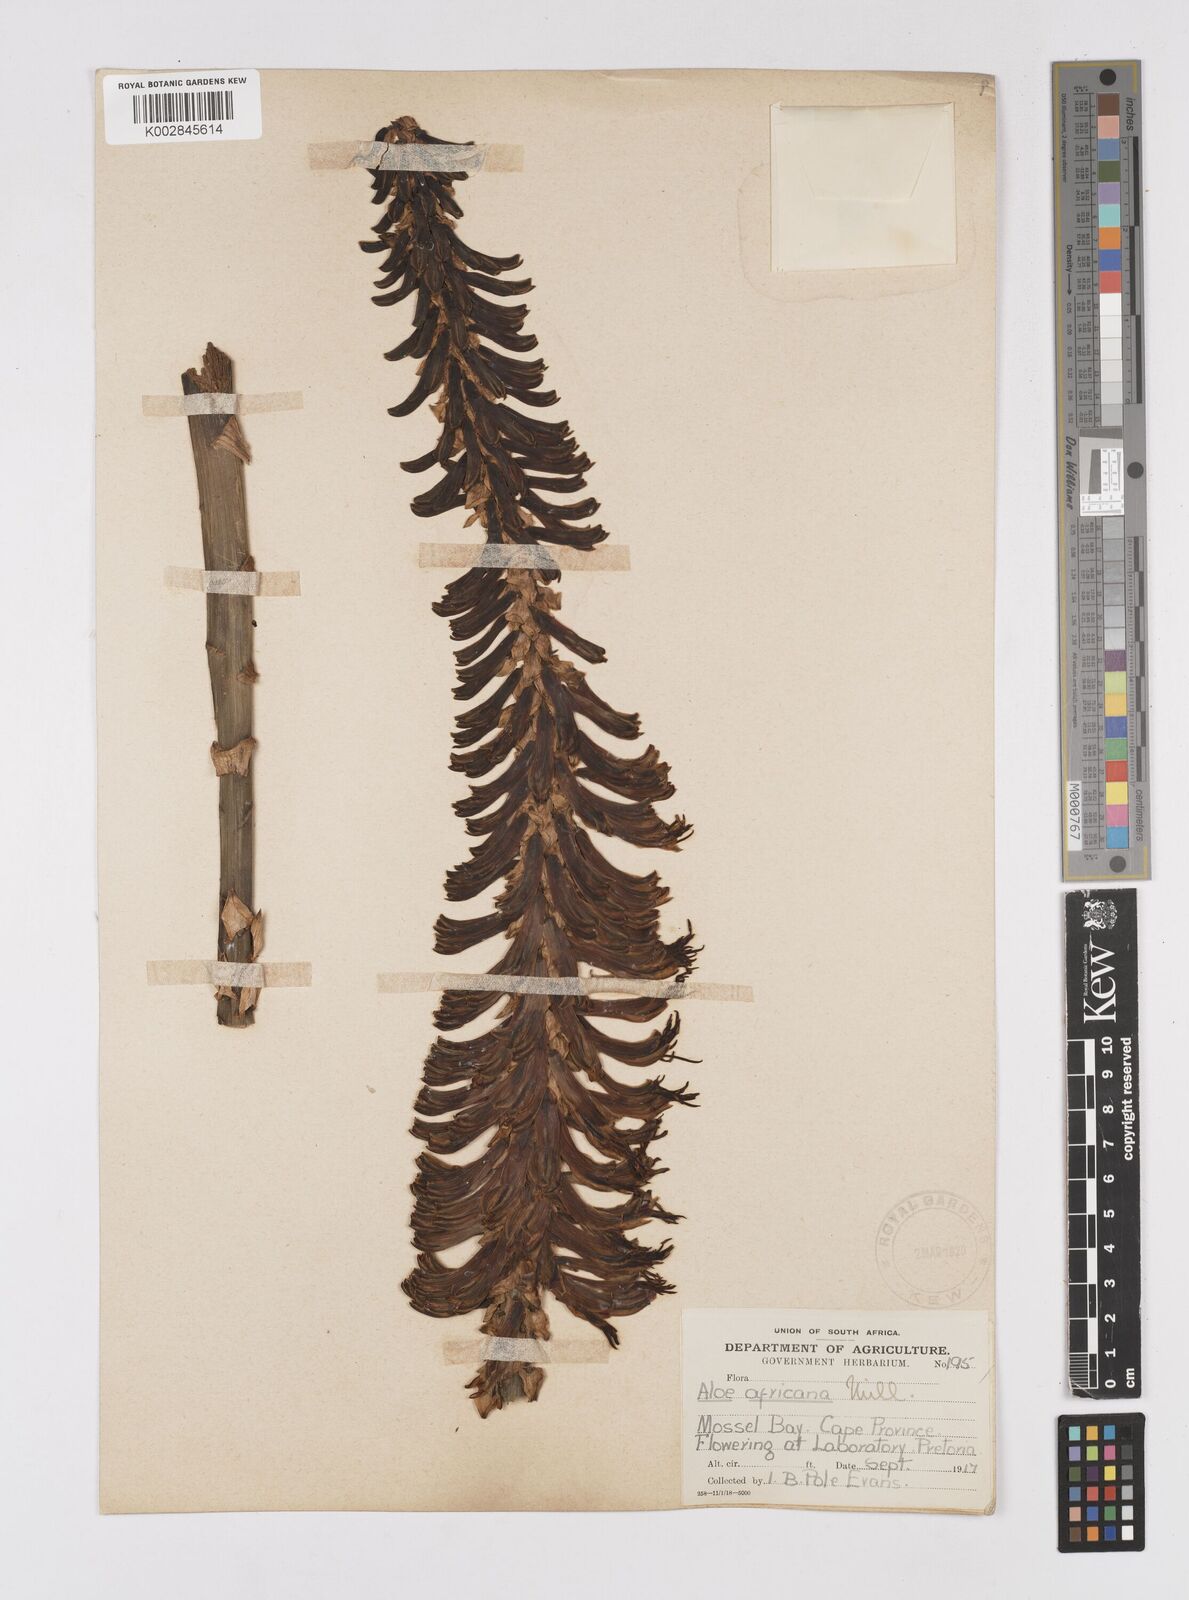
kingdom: Plantae
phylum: Tracheophyta
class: Liliopsida
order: Asparagales
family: Asphodelaceae
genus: Aloe
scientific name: Aloe africana
